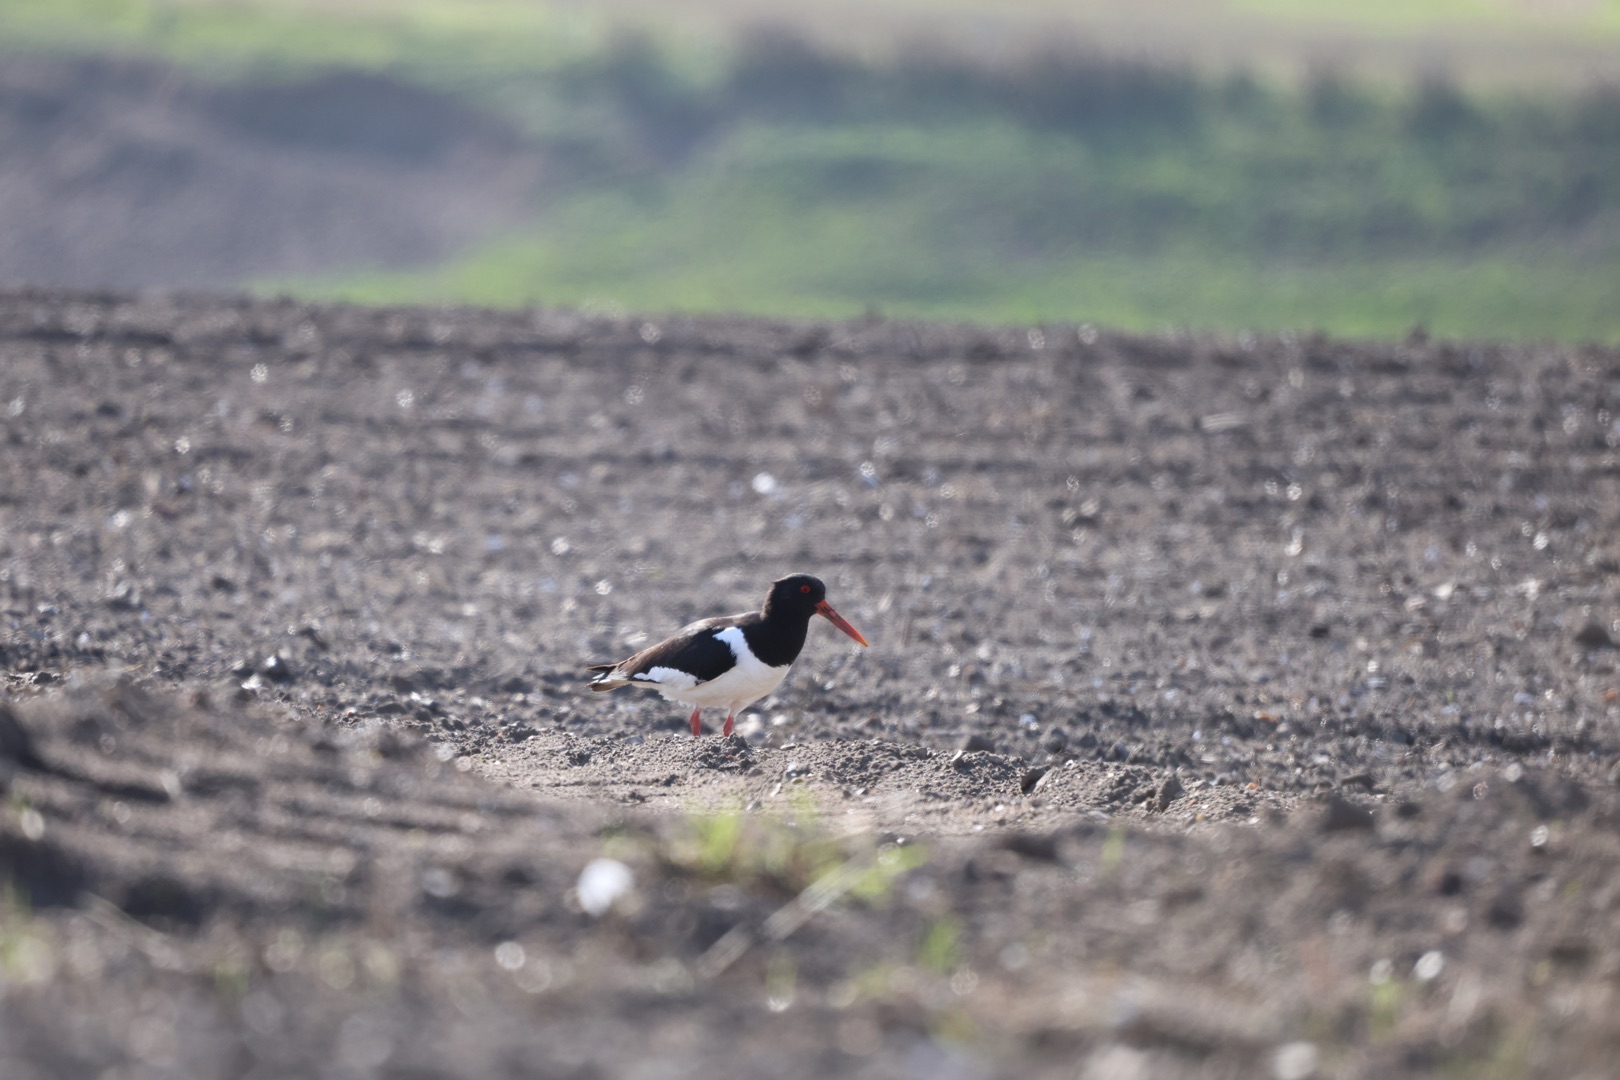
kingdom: Animalia
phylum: Chordata
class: Aves
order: Charadriiformes
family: Haematopodidae
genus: Haematopus
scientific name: Haematopus ostralegus
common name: Strandskade
